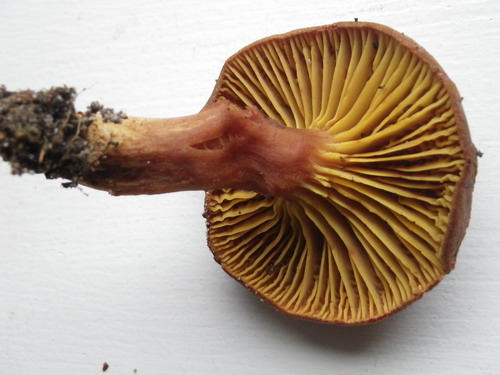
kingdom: Fungi
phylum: Basidiomycota
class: Agaricomycetes
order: Boletales
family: Boletaceae
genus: Phylloporus
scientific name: Phylloporus pelletieri
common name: lamelrørhat
